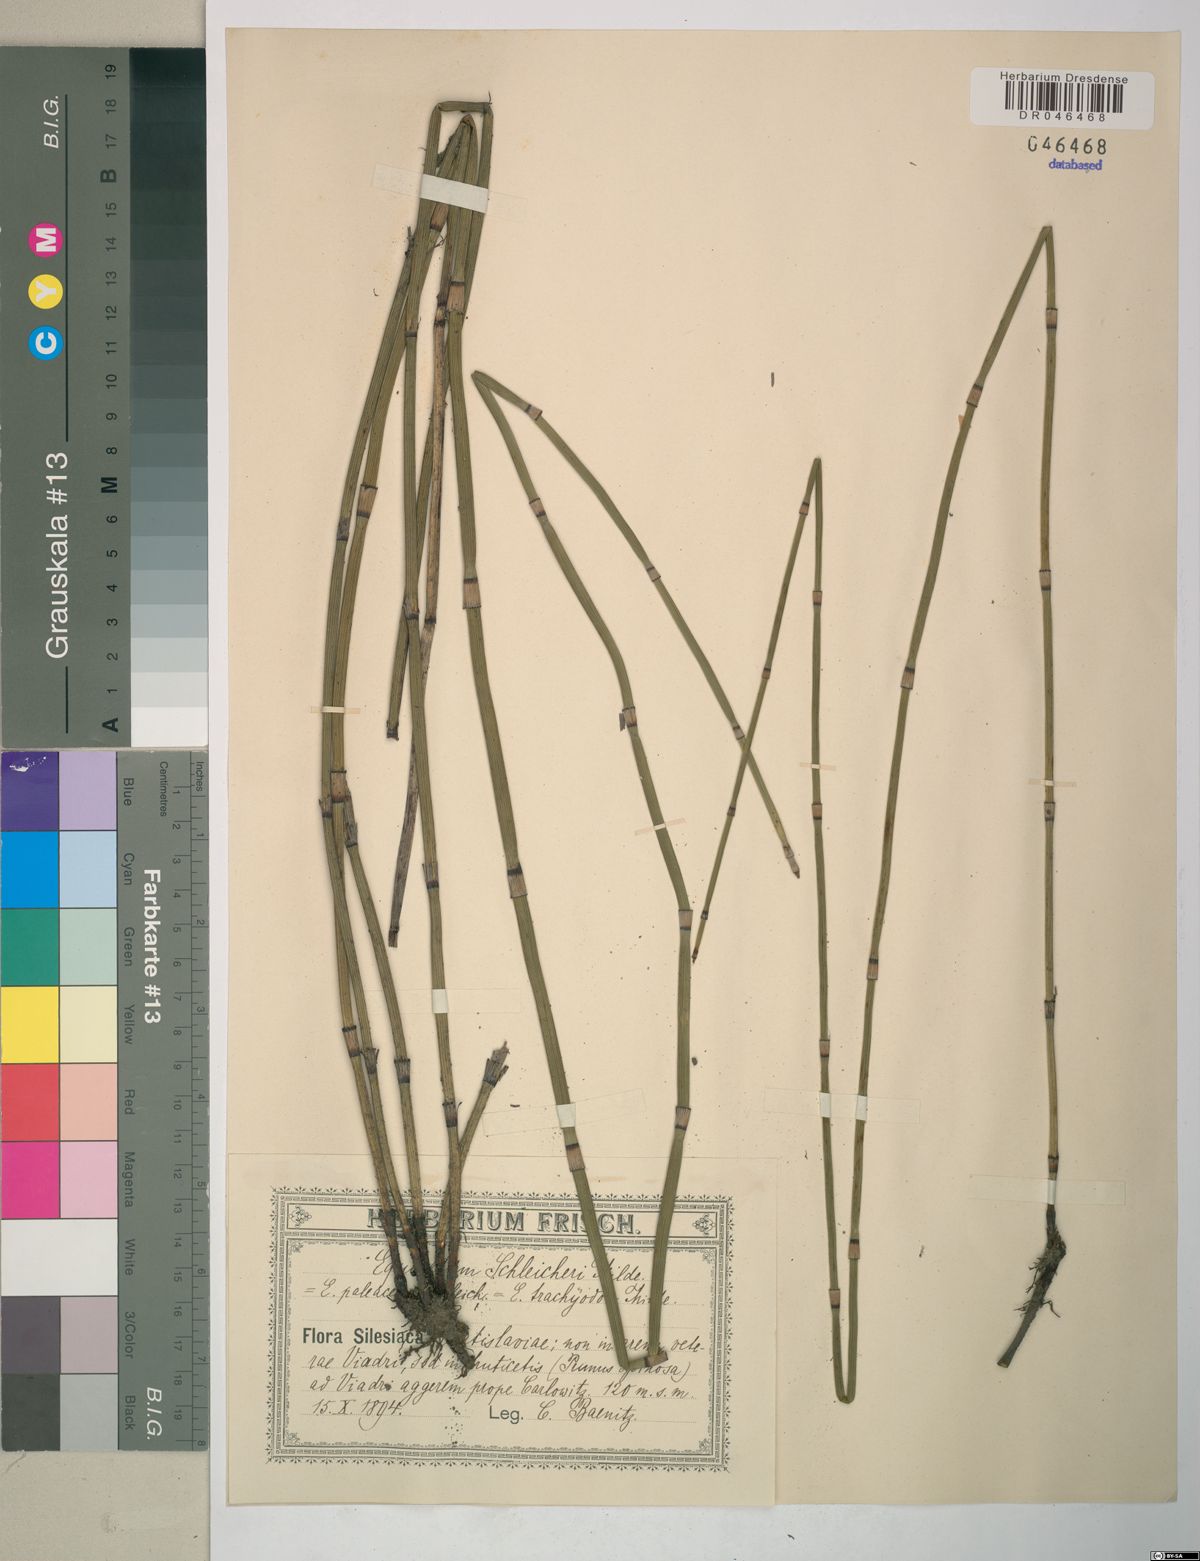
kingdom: Plantae
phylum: Tracheophyta
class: Polypodiopsida
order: Equisetales
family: Equisetaceae
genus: Equisetum
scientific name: Equisetum moorei
